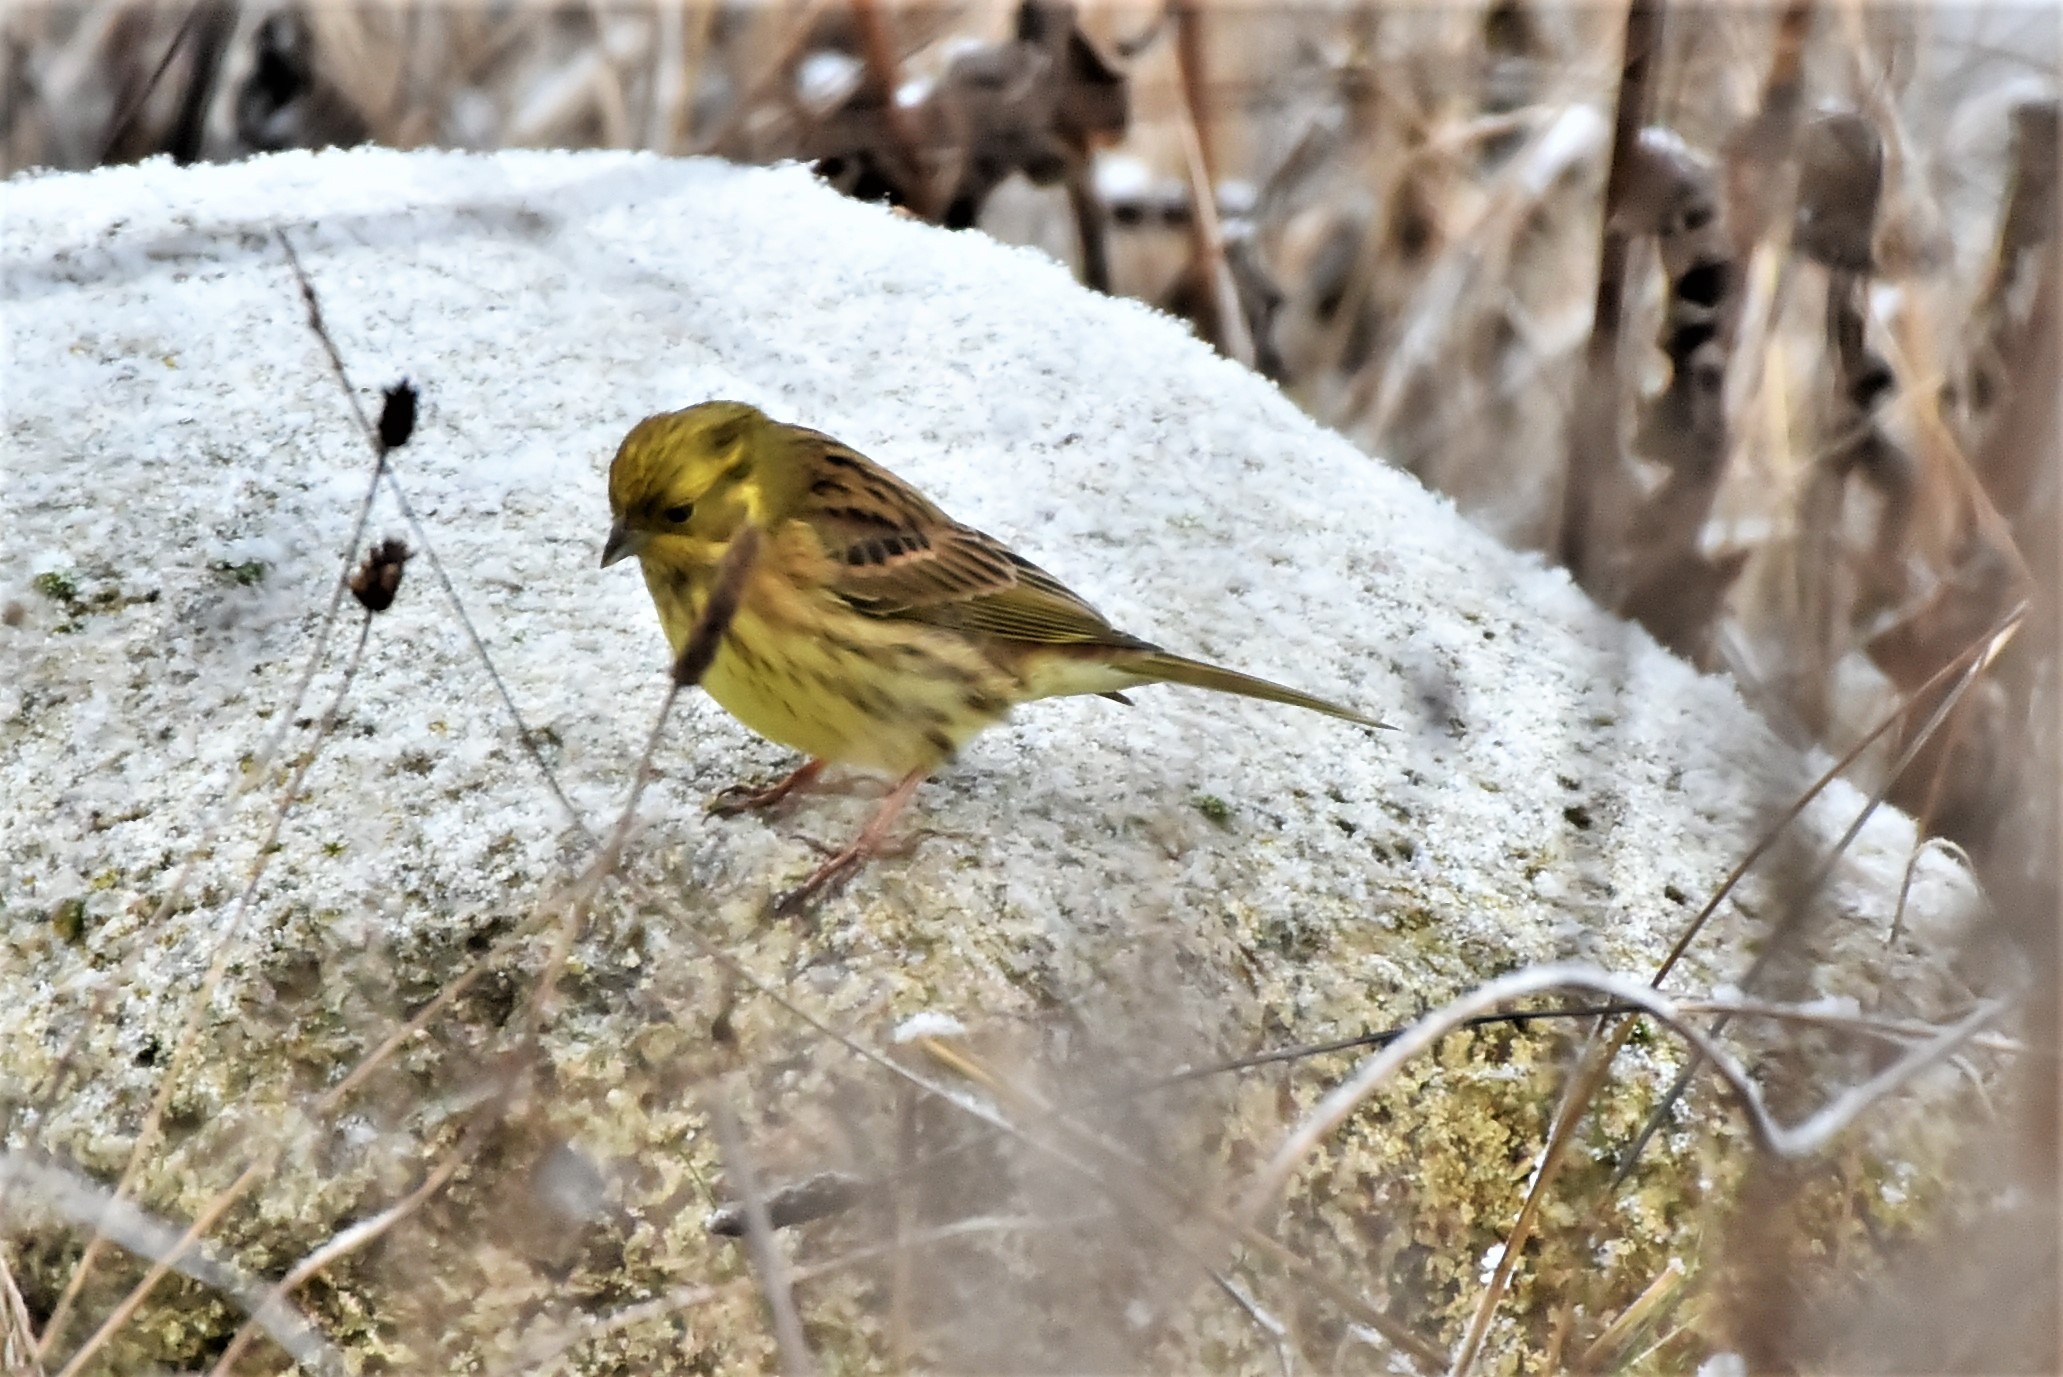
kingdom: Animalia
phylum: Chordata
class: Aves
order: Passeriformes
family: Emberizidae
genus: Emberiza
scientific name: Emberiza citrinella
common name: Gulspurv
